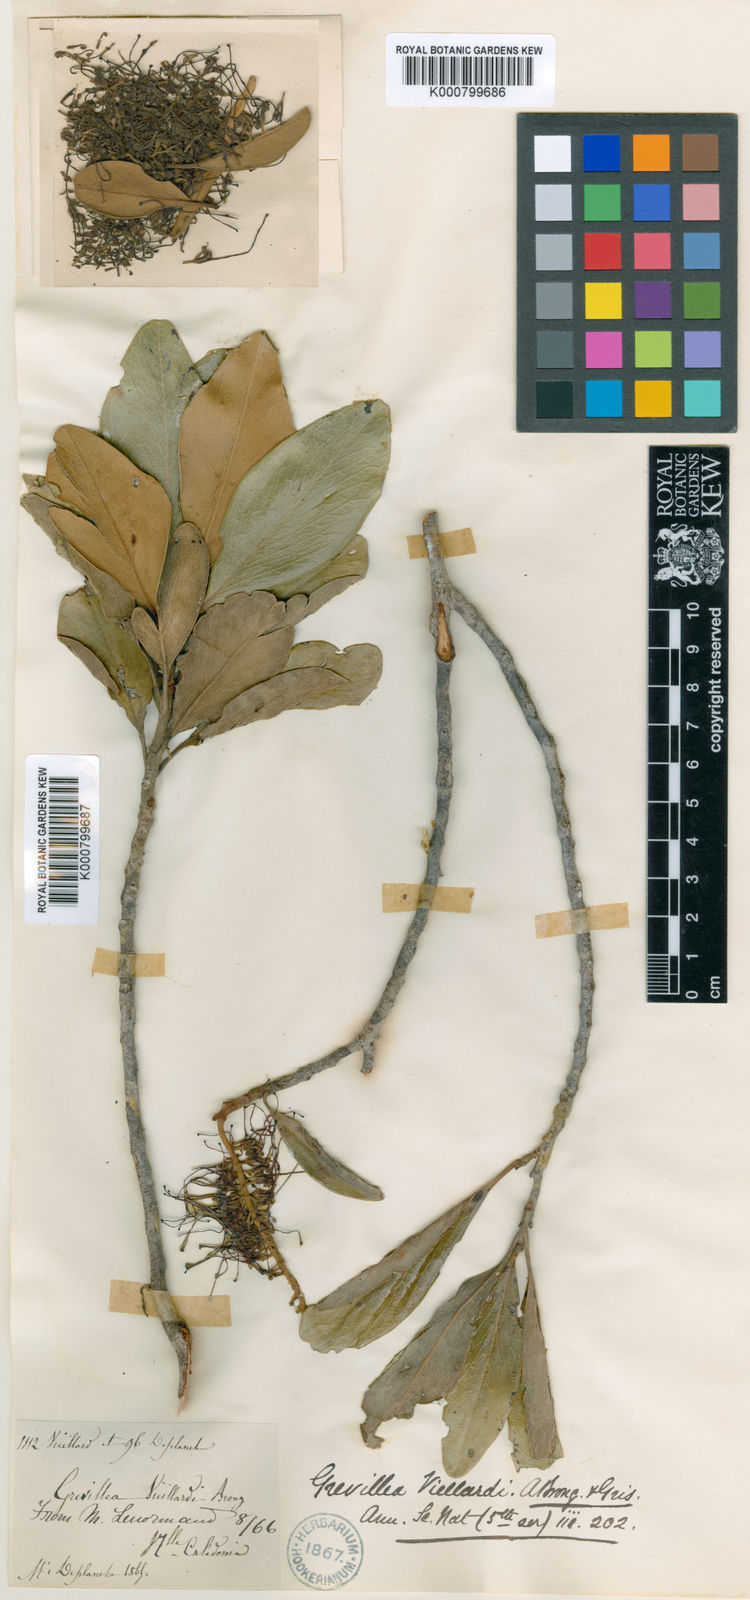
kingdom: Plantae
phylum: Tracheophyta
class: Magnoliopsida
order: Proteales
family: Proteaceae
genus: Grevillea
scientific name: Grevillea gillivrayi
